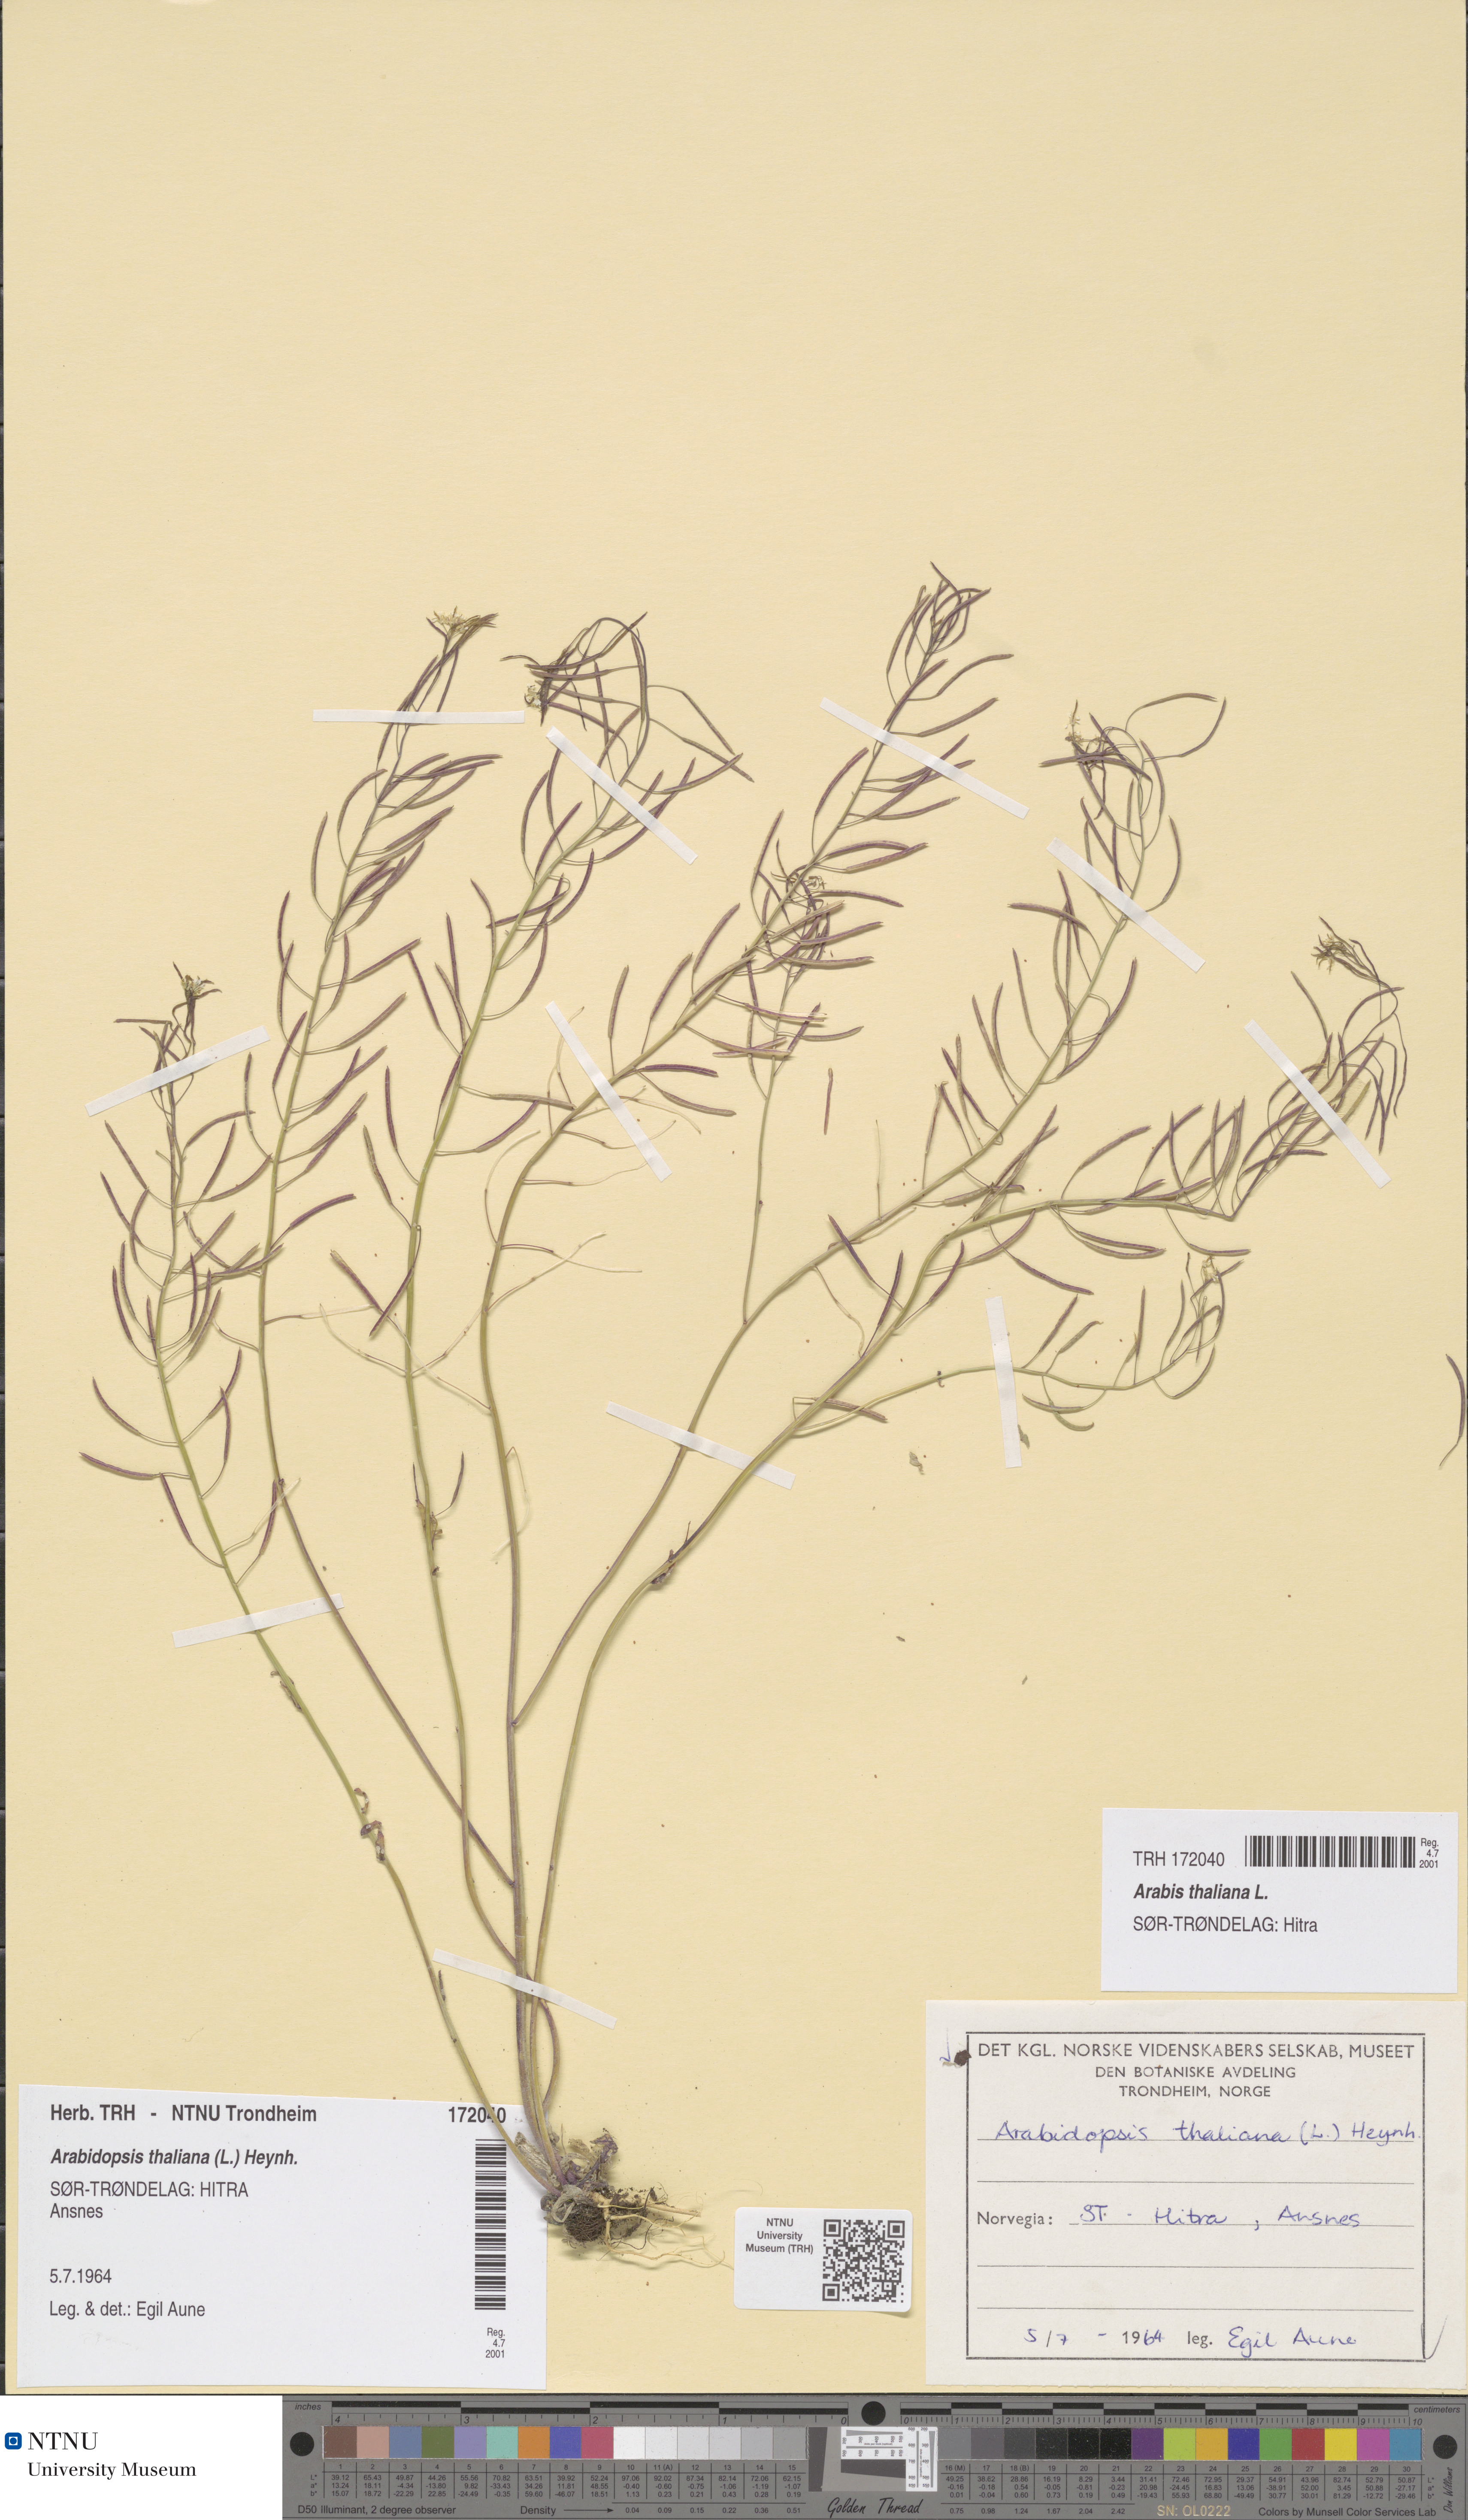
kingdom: Plantae
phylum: Tracheophyta
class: Magnoliopsida
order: Brassicales
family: Brassicaceae
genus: Arabidopsis
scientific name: Arabidopsis thaliana
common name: Thale cress
